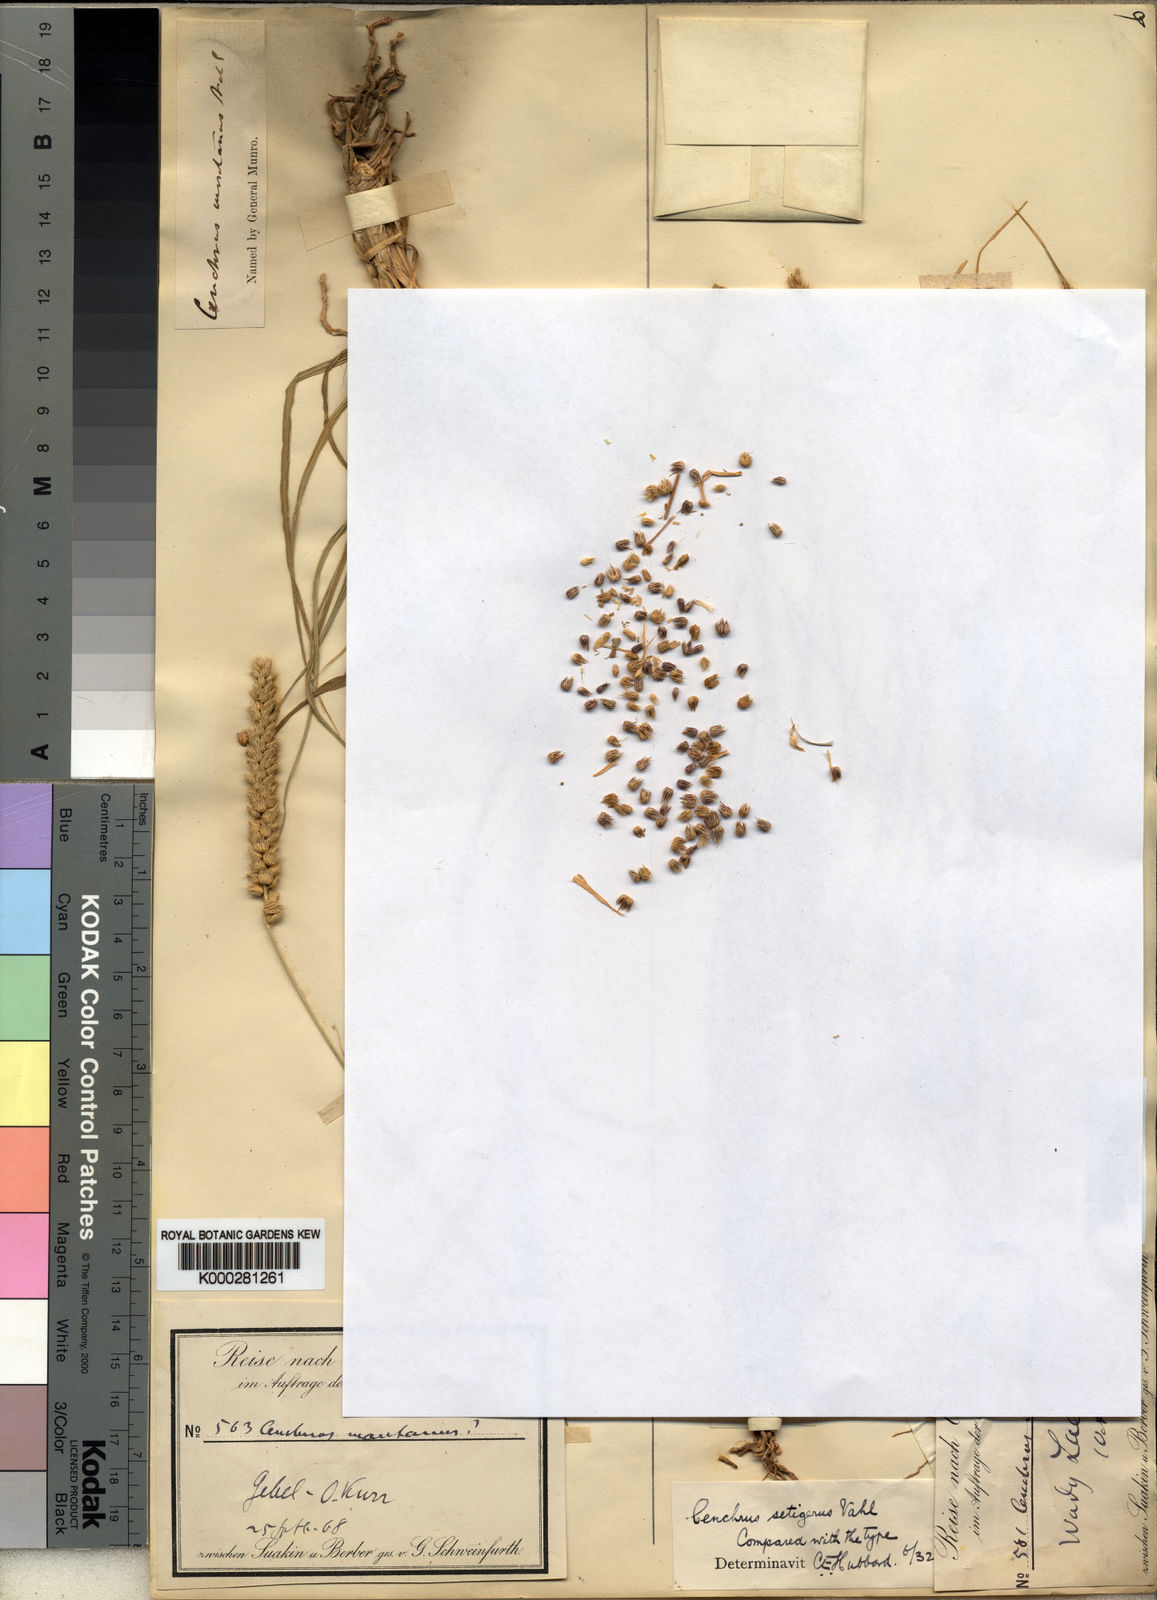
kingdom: Plantae
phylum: Tracheophyta
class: Liliopsida
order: Poales
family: Poaceae
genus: Cenchrus
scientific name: Cenchrus
